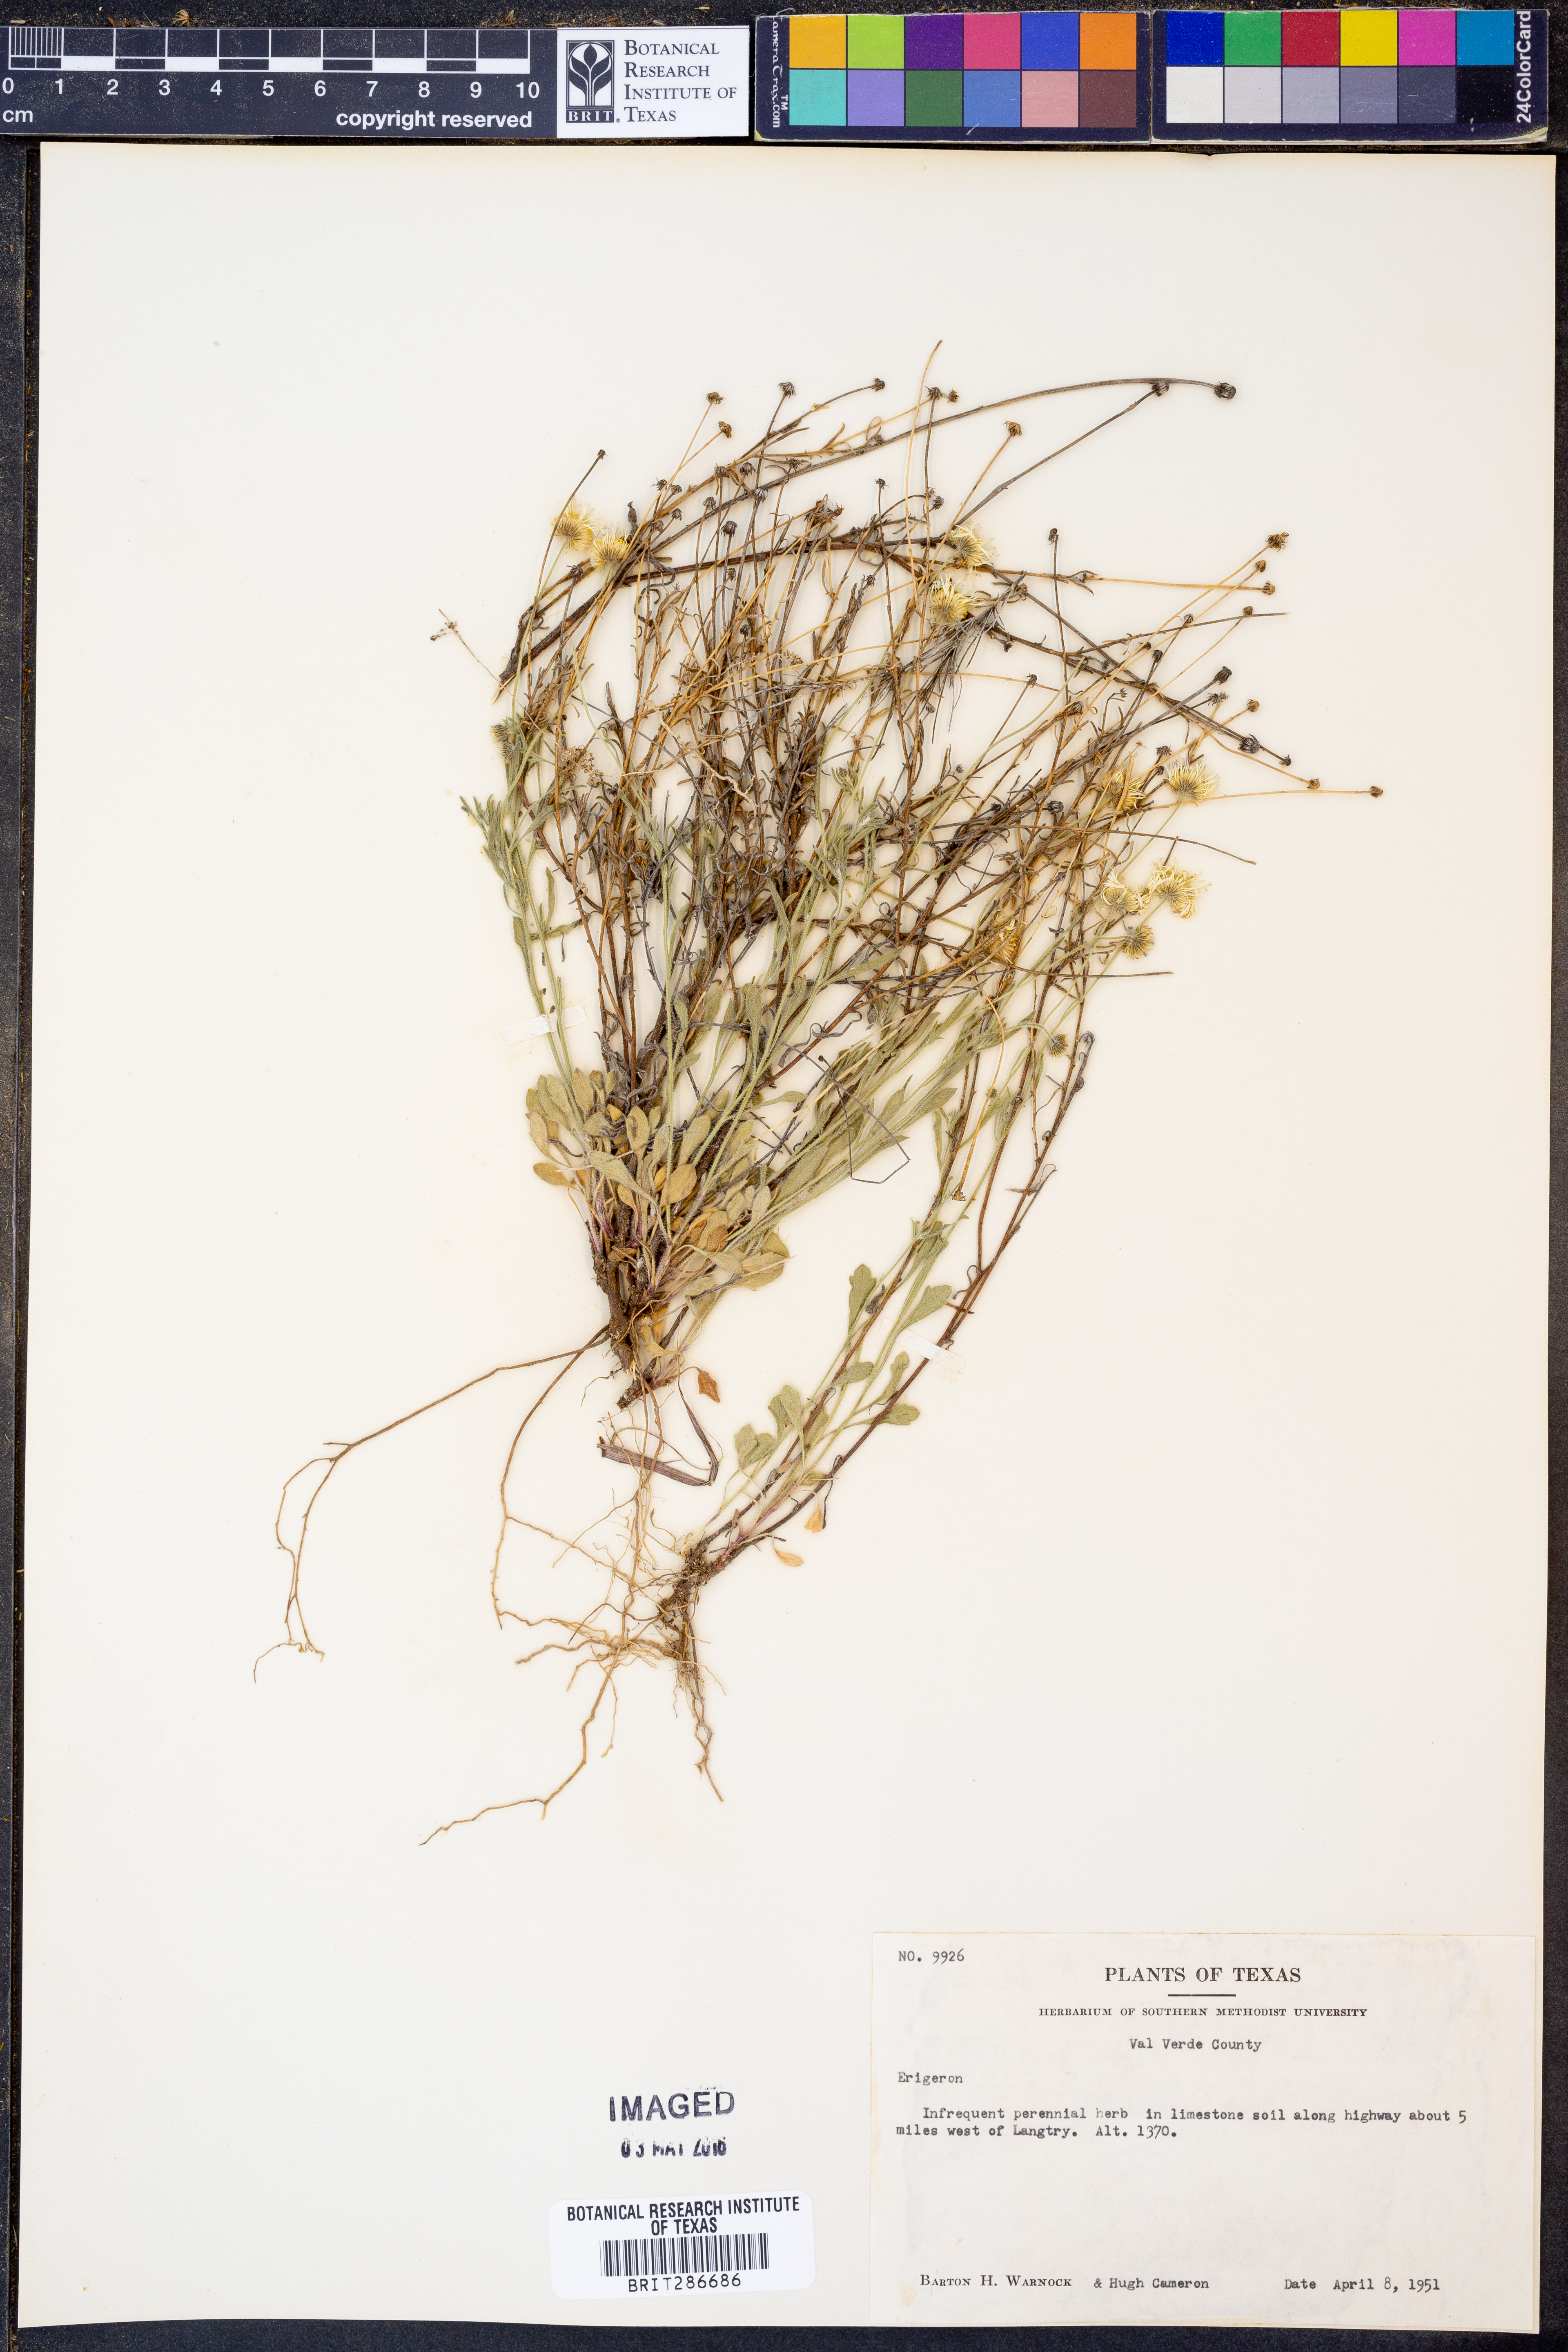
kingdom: Plantae
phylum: Tracheophyta
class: Magnoliopsida
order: Asterales
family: Asteraceae
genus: Erigeron
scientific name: Erigeron
